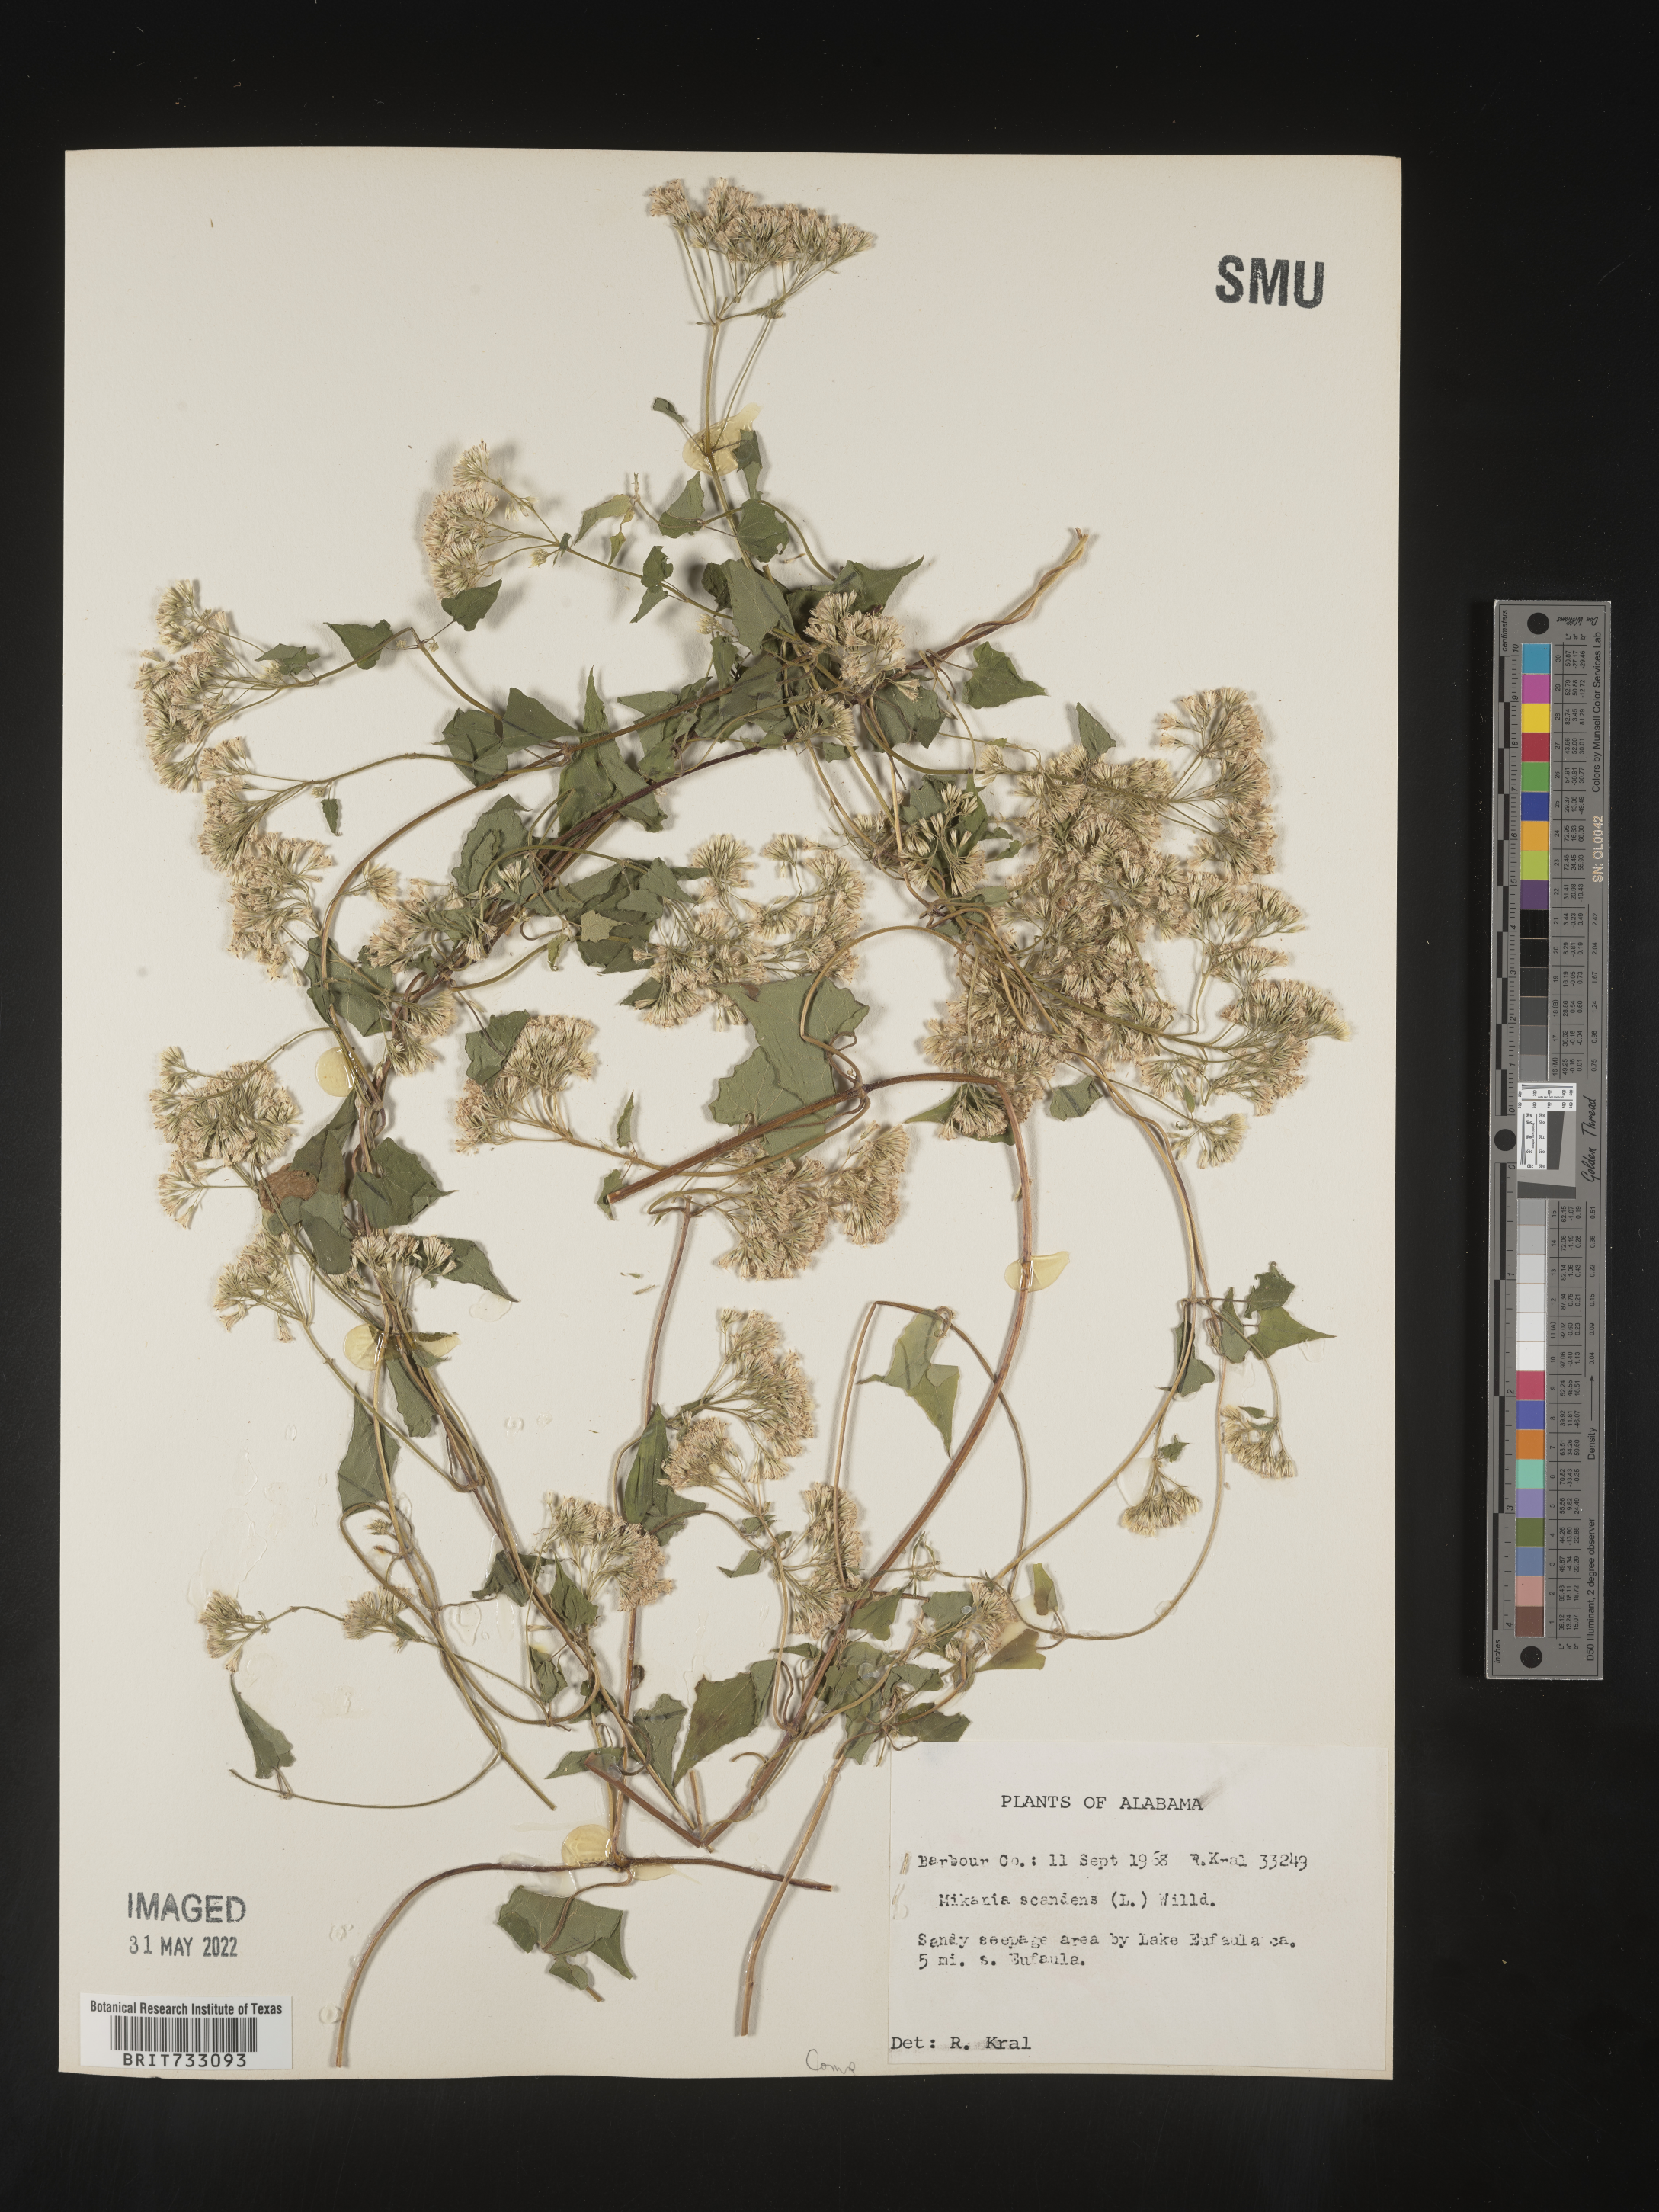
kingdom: Plantae
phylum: Tracheophyta
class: Magnoliopsida
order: Asterales
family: Asteraceae
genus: Mikania
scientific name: Mikania scandens
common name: Climbing hempvine
